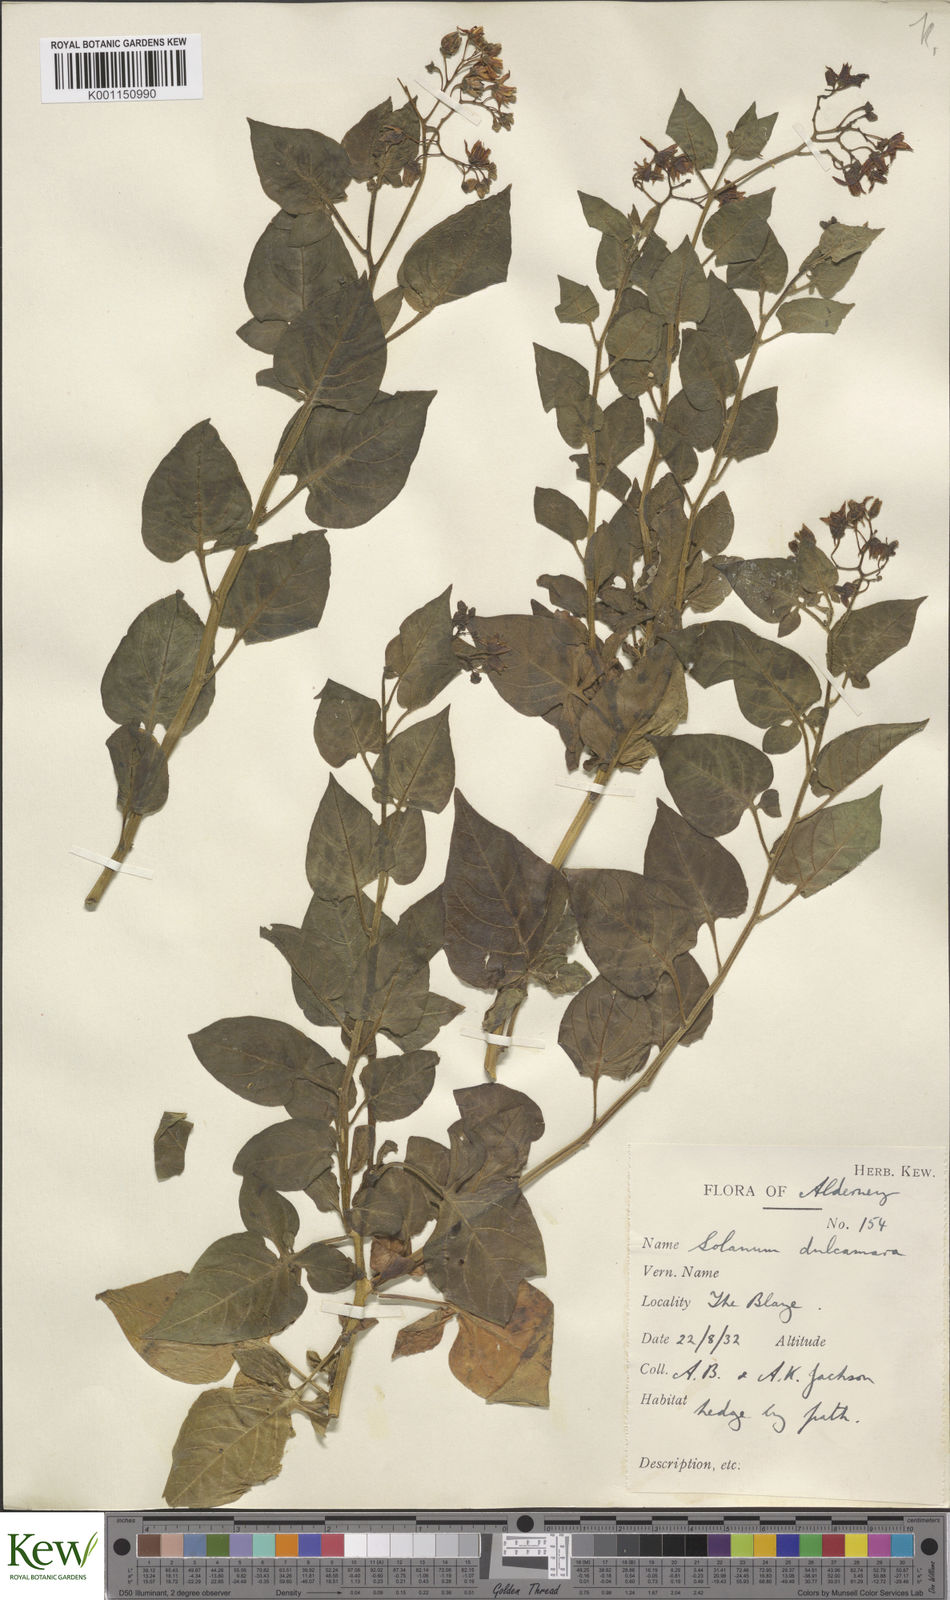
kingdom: Plantae
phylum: Tracheophyta
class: Magnoliopsida
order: Solanales
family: Solanaceae
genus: Solanum
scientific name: Solanum dulcamara
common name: Climbing nightshade
